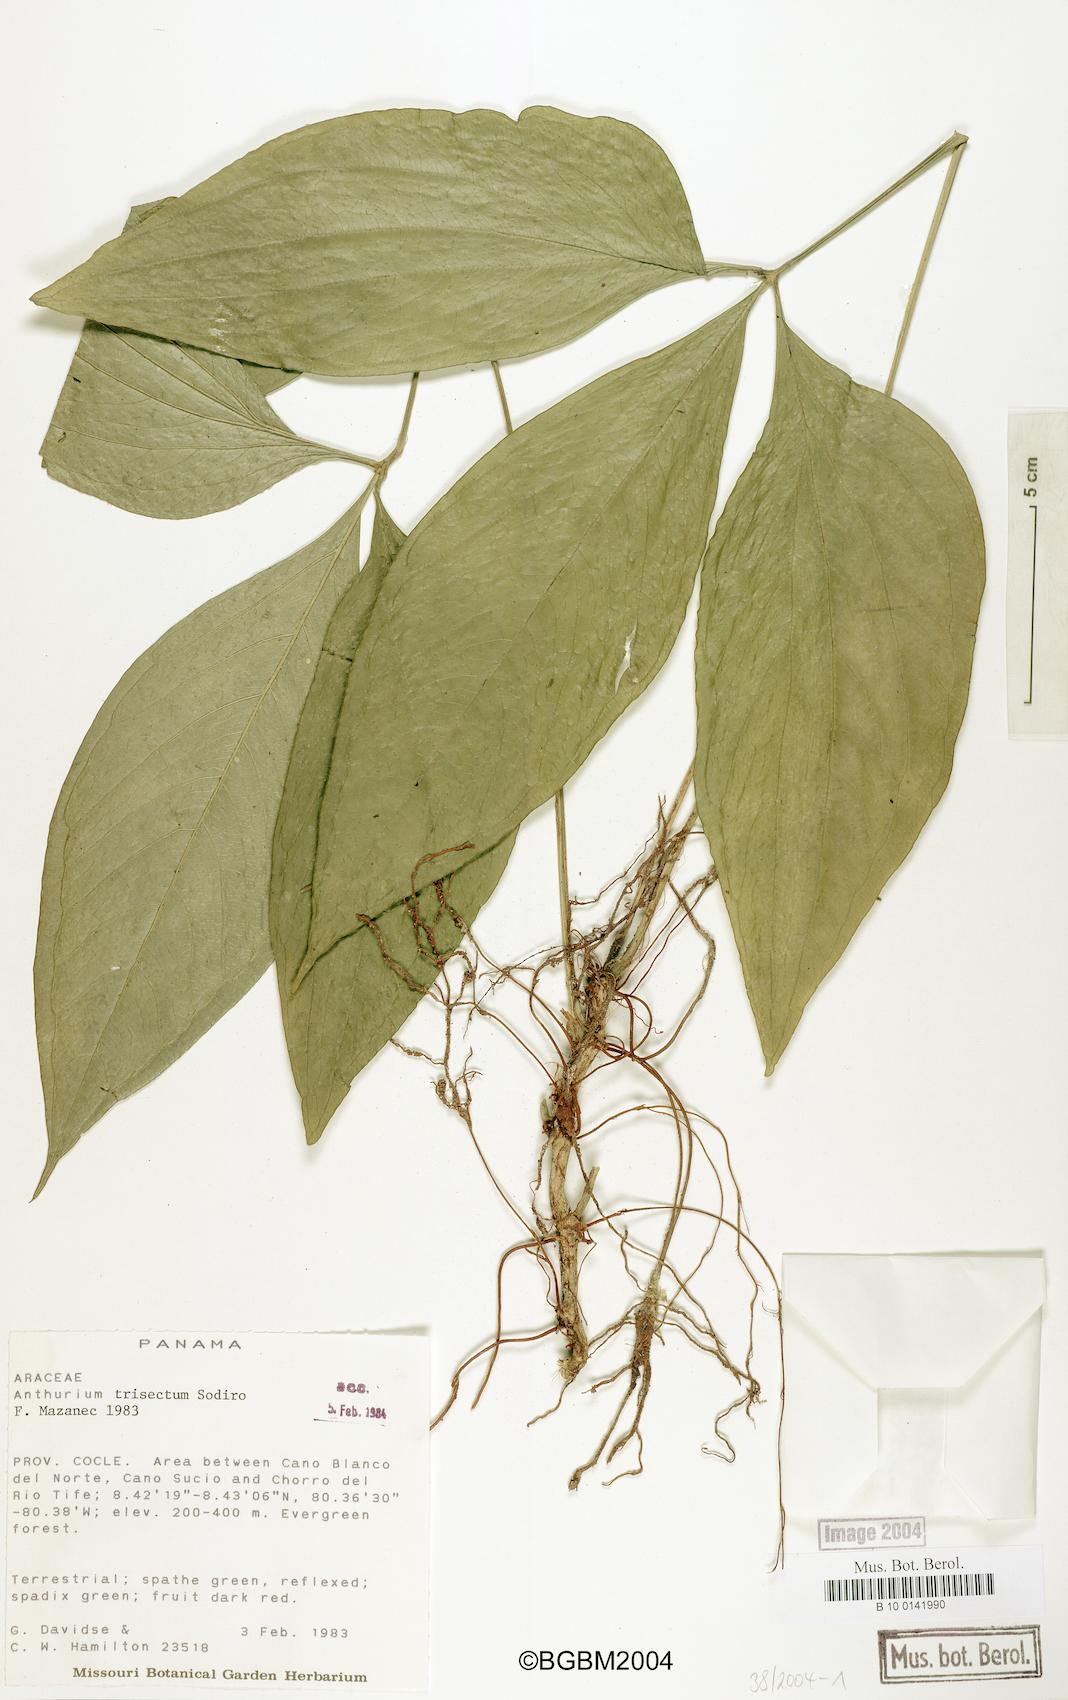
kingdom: Plantae
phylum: Tracheophyta
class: Liliopsida
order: Alismatales
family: Araceae
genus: Anthurium
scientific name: Anthurium trisectum
